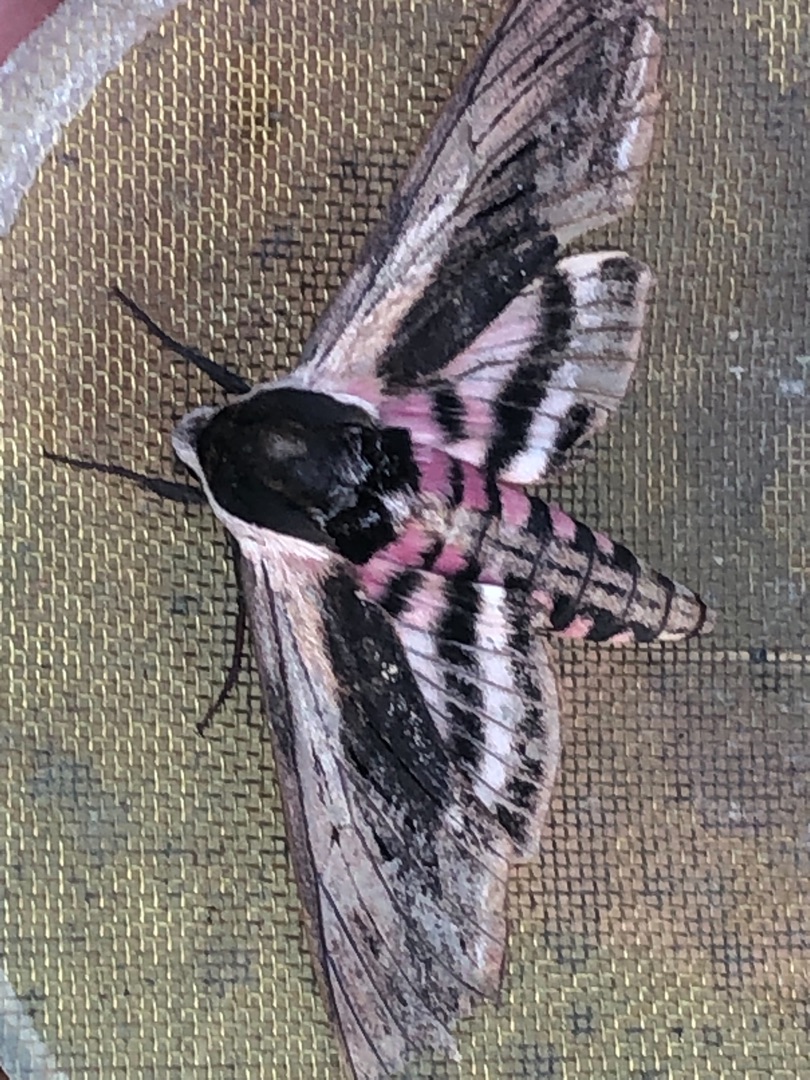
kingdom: Animalia
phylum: Arthropoda
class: Insecta
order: Lepidoptera
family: Sphingidae
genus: Sphinx
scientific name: Sphinx ligustri
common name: Ligustersværmer
